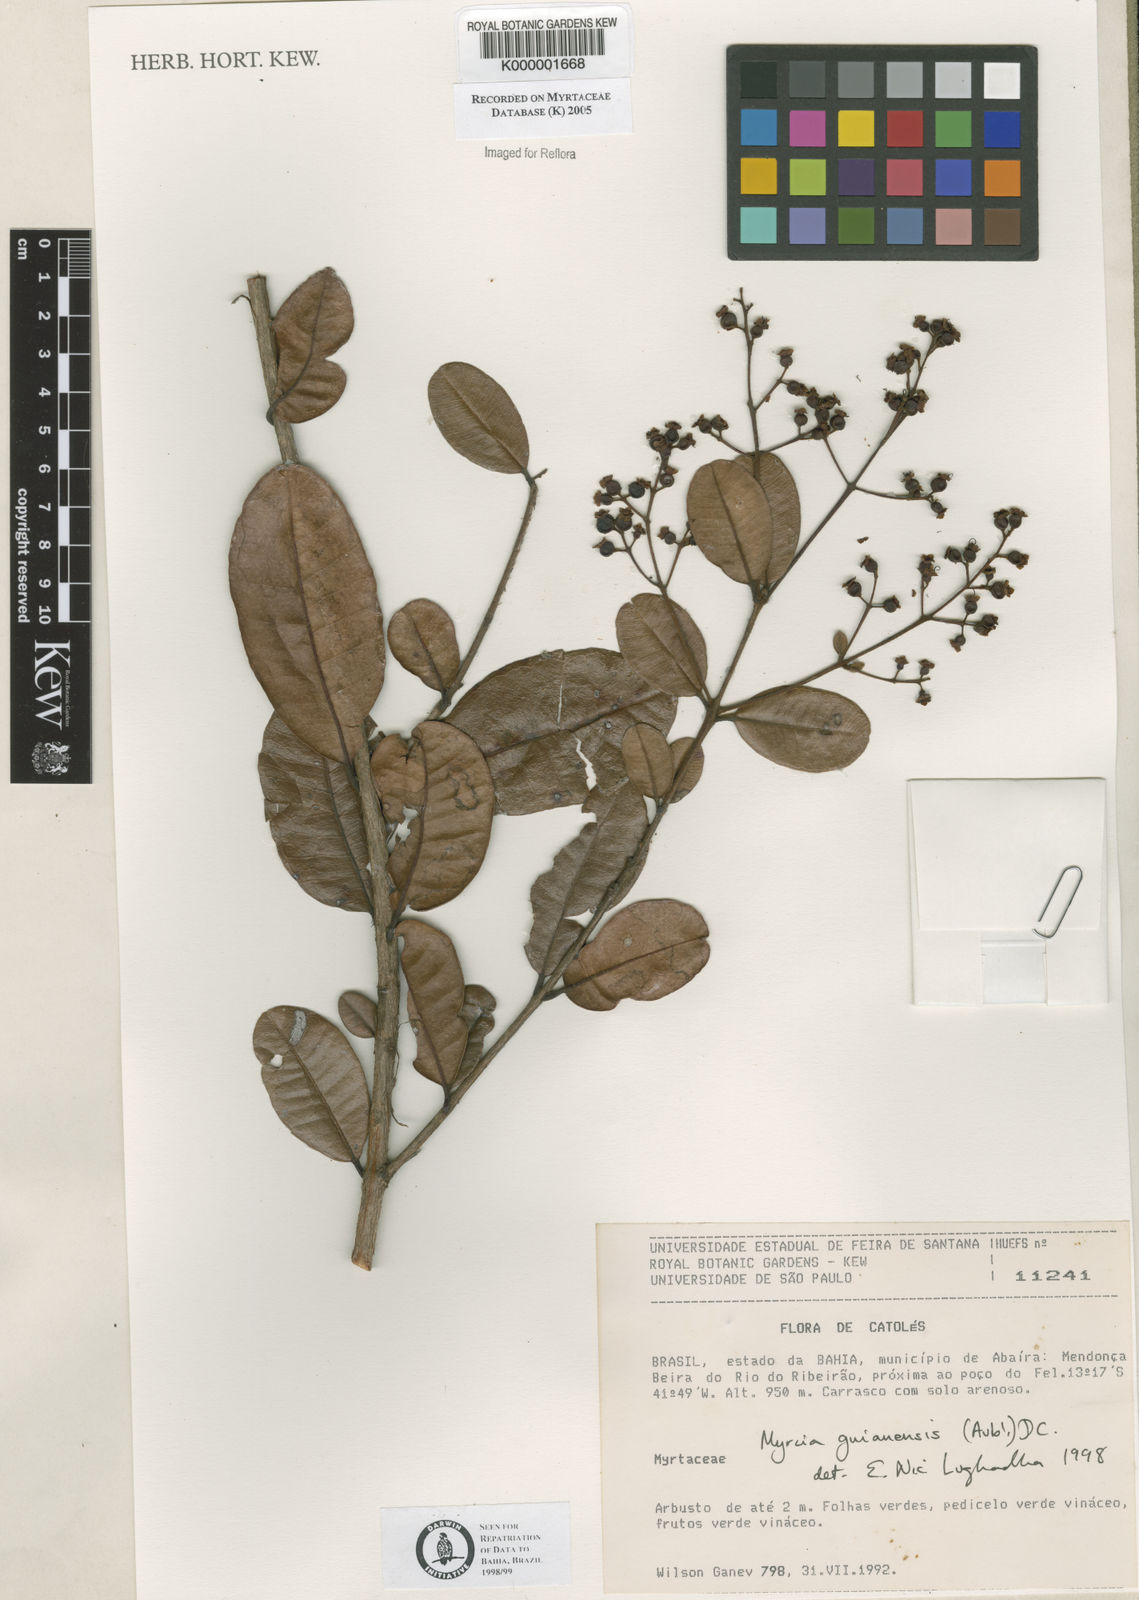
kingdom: Plantae
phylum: Tracheophyta
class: Magnoliopsida
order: Myrtales
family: Myrtaceae
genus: Myrcia
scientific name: Myrcia guianensis
